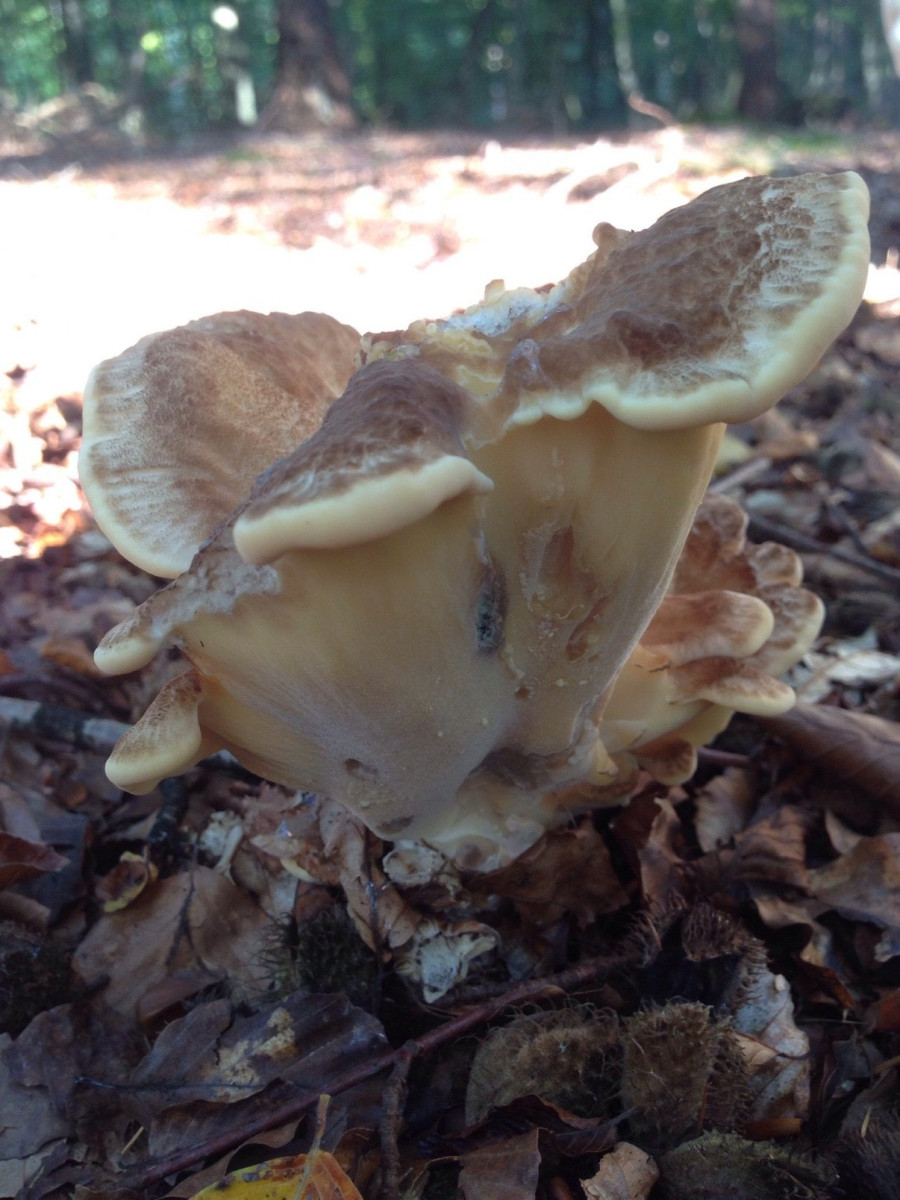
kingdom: Fungi
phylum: Basidiomycota
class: Agaricomycetes
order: Polyporales
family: Meripilaceae
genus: Meripilus
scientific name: Meripilus giganteus
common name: kæmpeporesvamp
